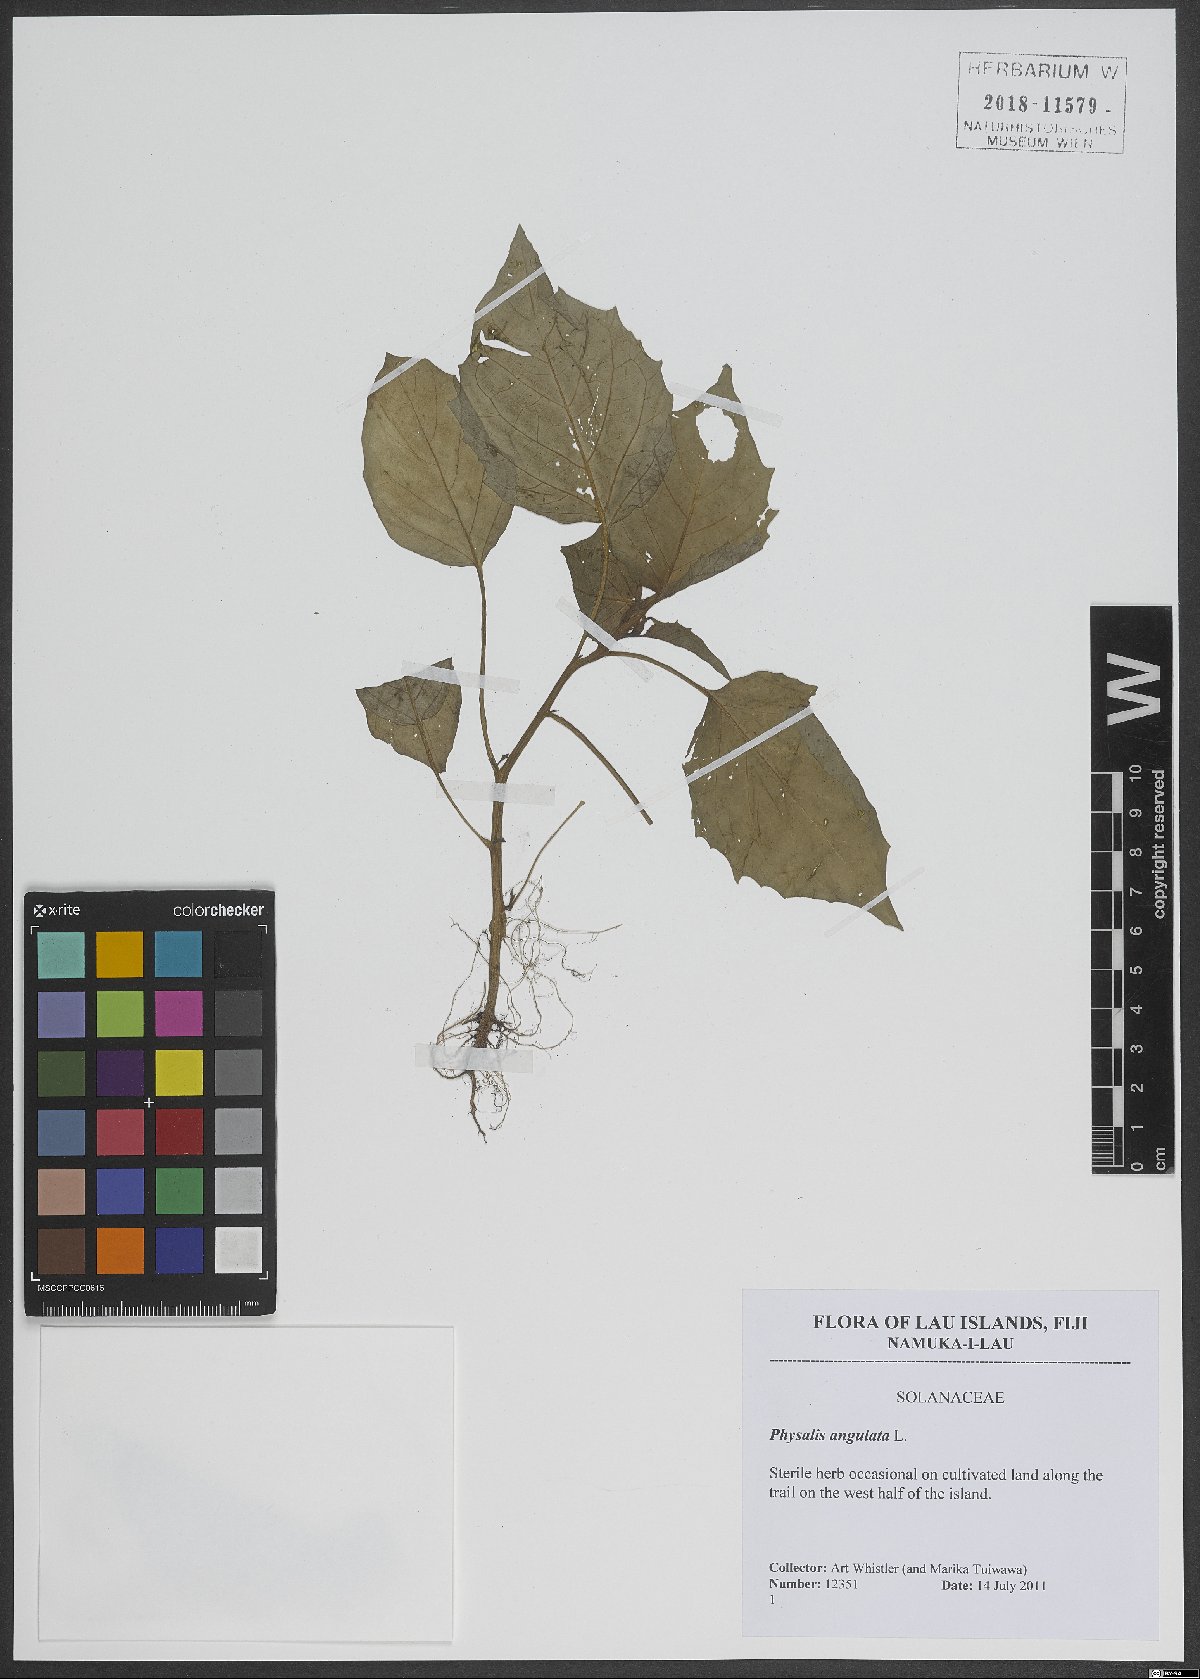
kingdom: Plantae
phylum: Tracheophyta
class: Magnoliopsida
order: Solanales
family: Solanaceae
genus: Physalis
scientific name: Physalis angulata
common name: Angular winter-cherry
